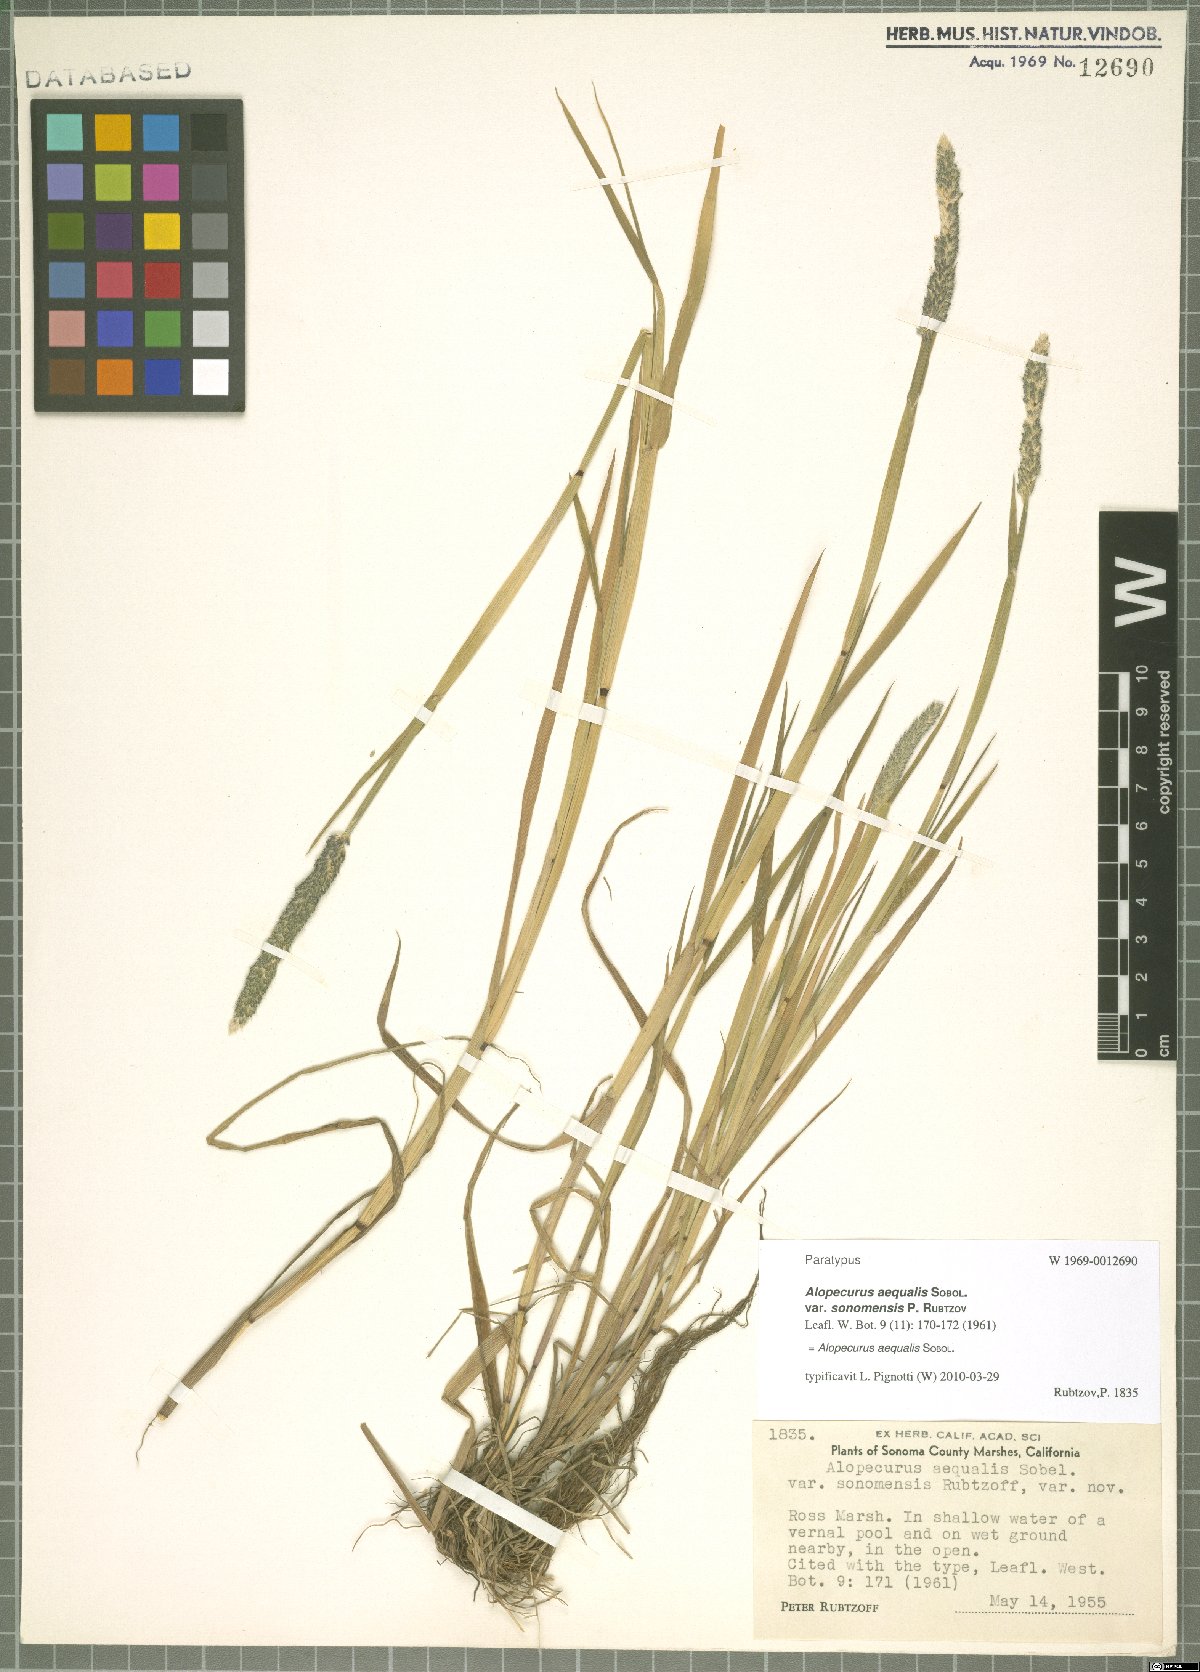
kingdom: Plantae
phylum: Tracheophyta
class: Liliopsida
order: Poales
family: Poaceae
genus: Alopecurus
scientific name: Alopecurus aequalis
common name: Orange foxtail
